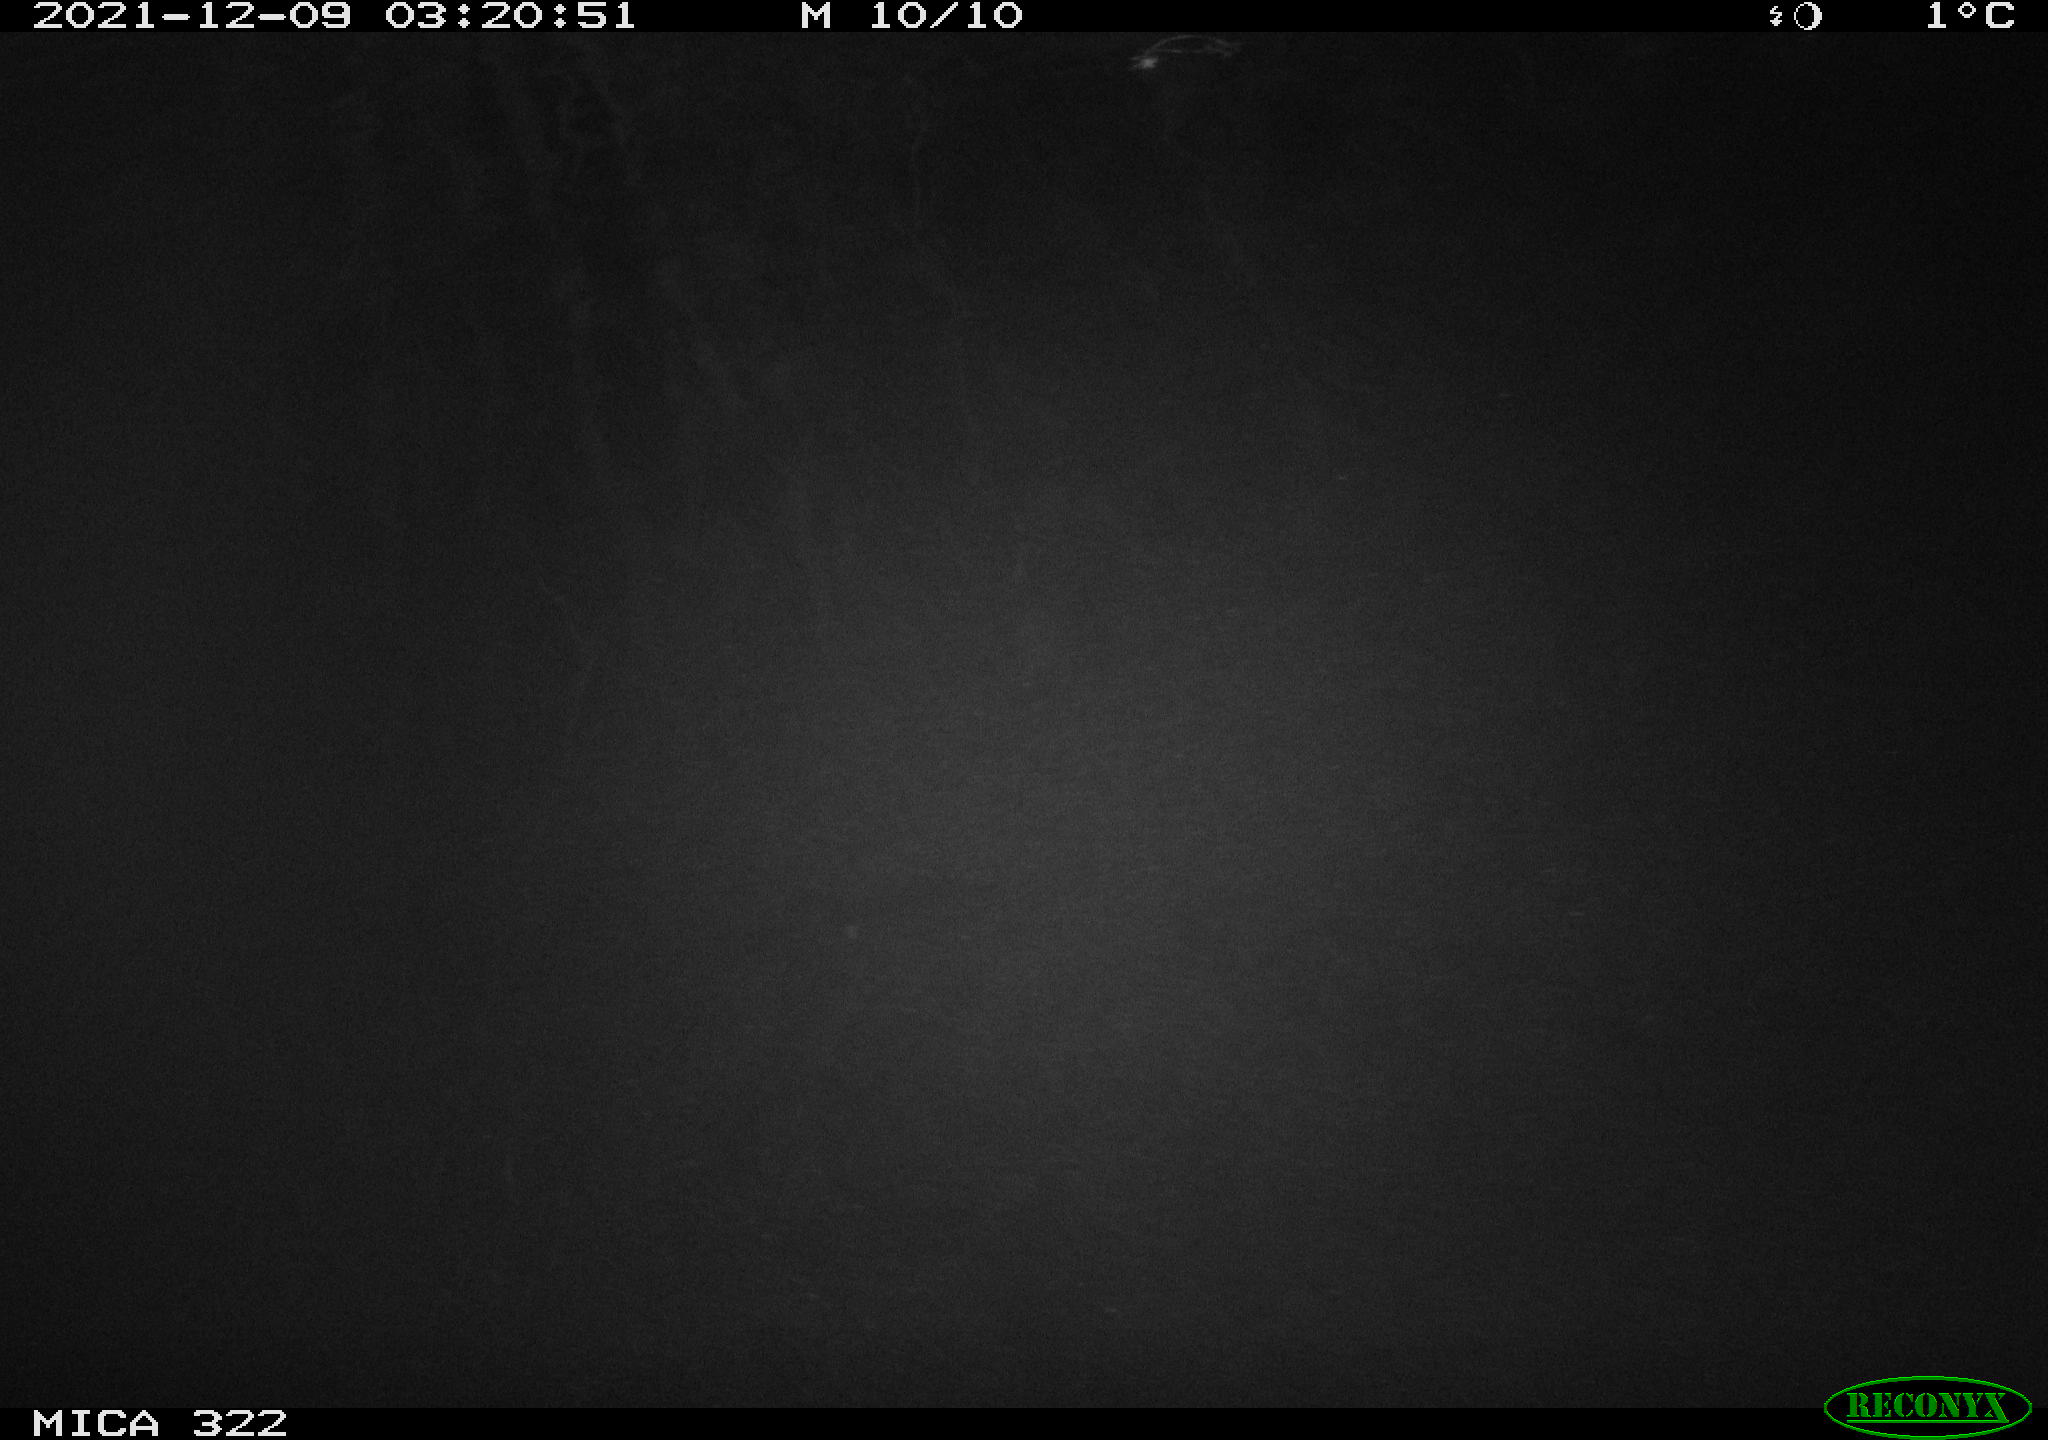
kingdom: Animalia
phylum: Chordata
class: Mammalia
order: Rodentia
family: Muridae
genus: Rattus
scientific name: Rattus norvegicus
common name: Brown rat
